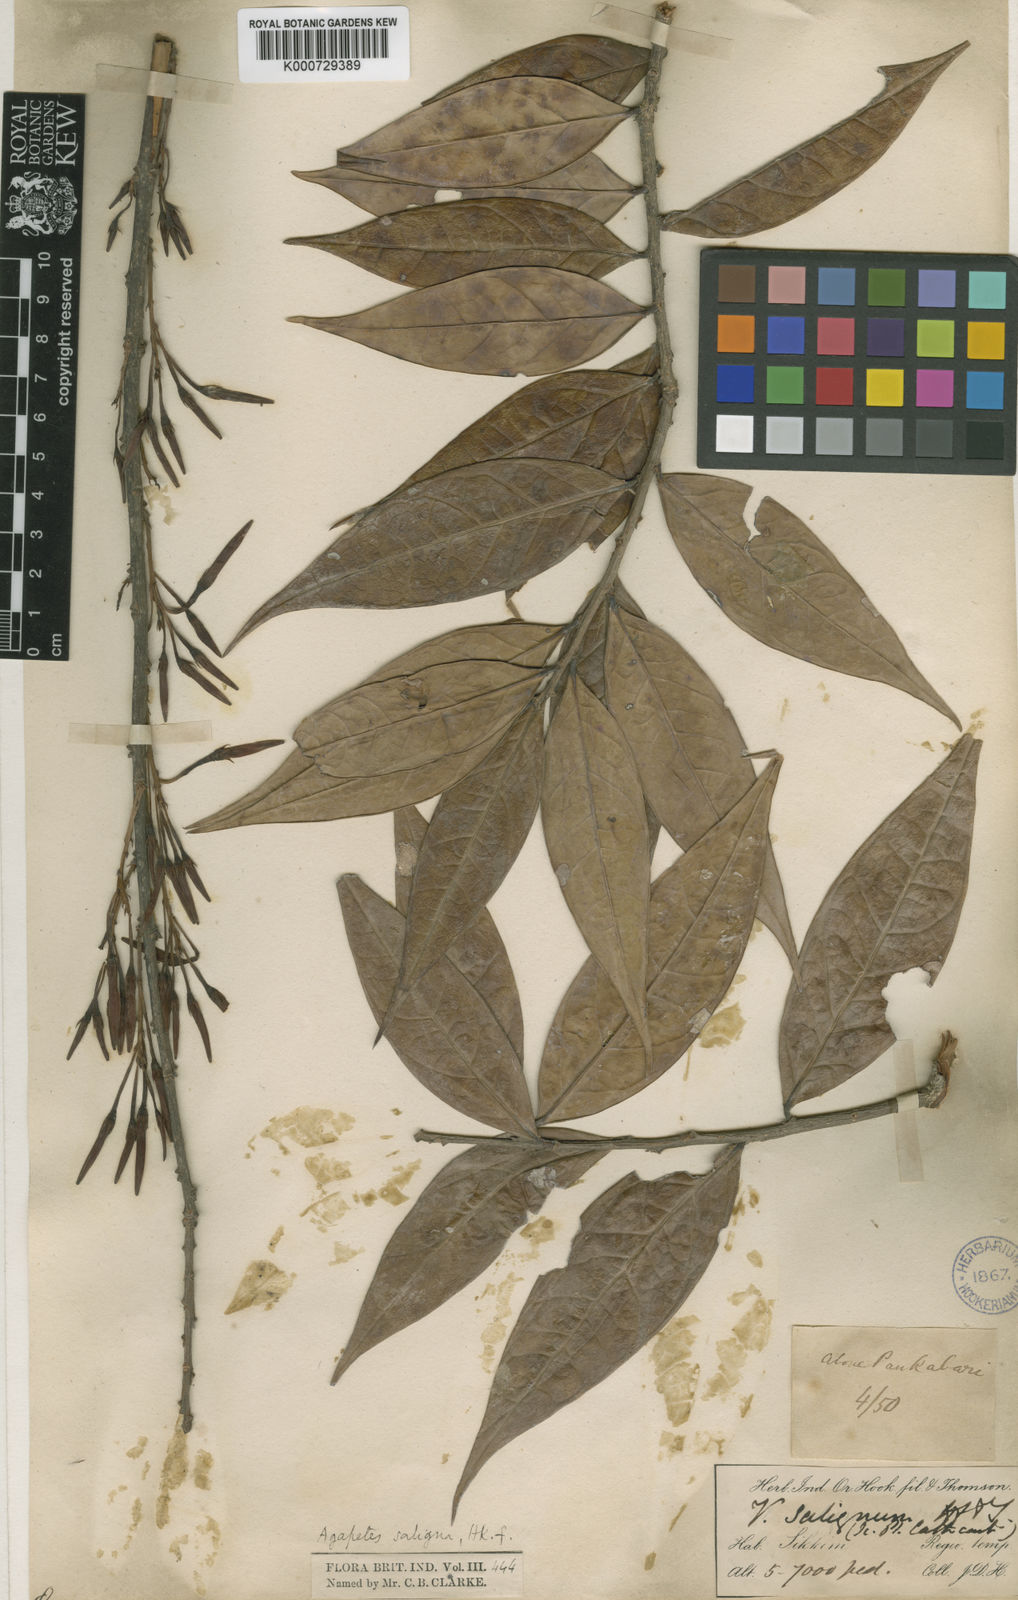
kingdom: Plantae
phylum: Tracheophyta
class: Magnoliopsida
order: Ericales
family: Ericaceae
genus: Agapetes
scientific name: Agapetes saligna
